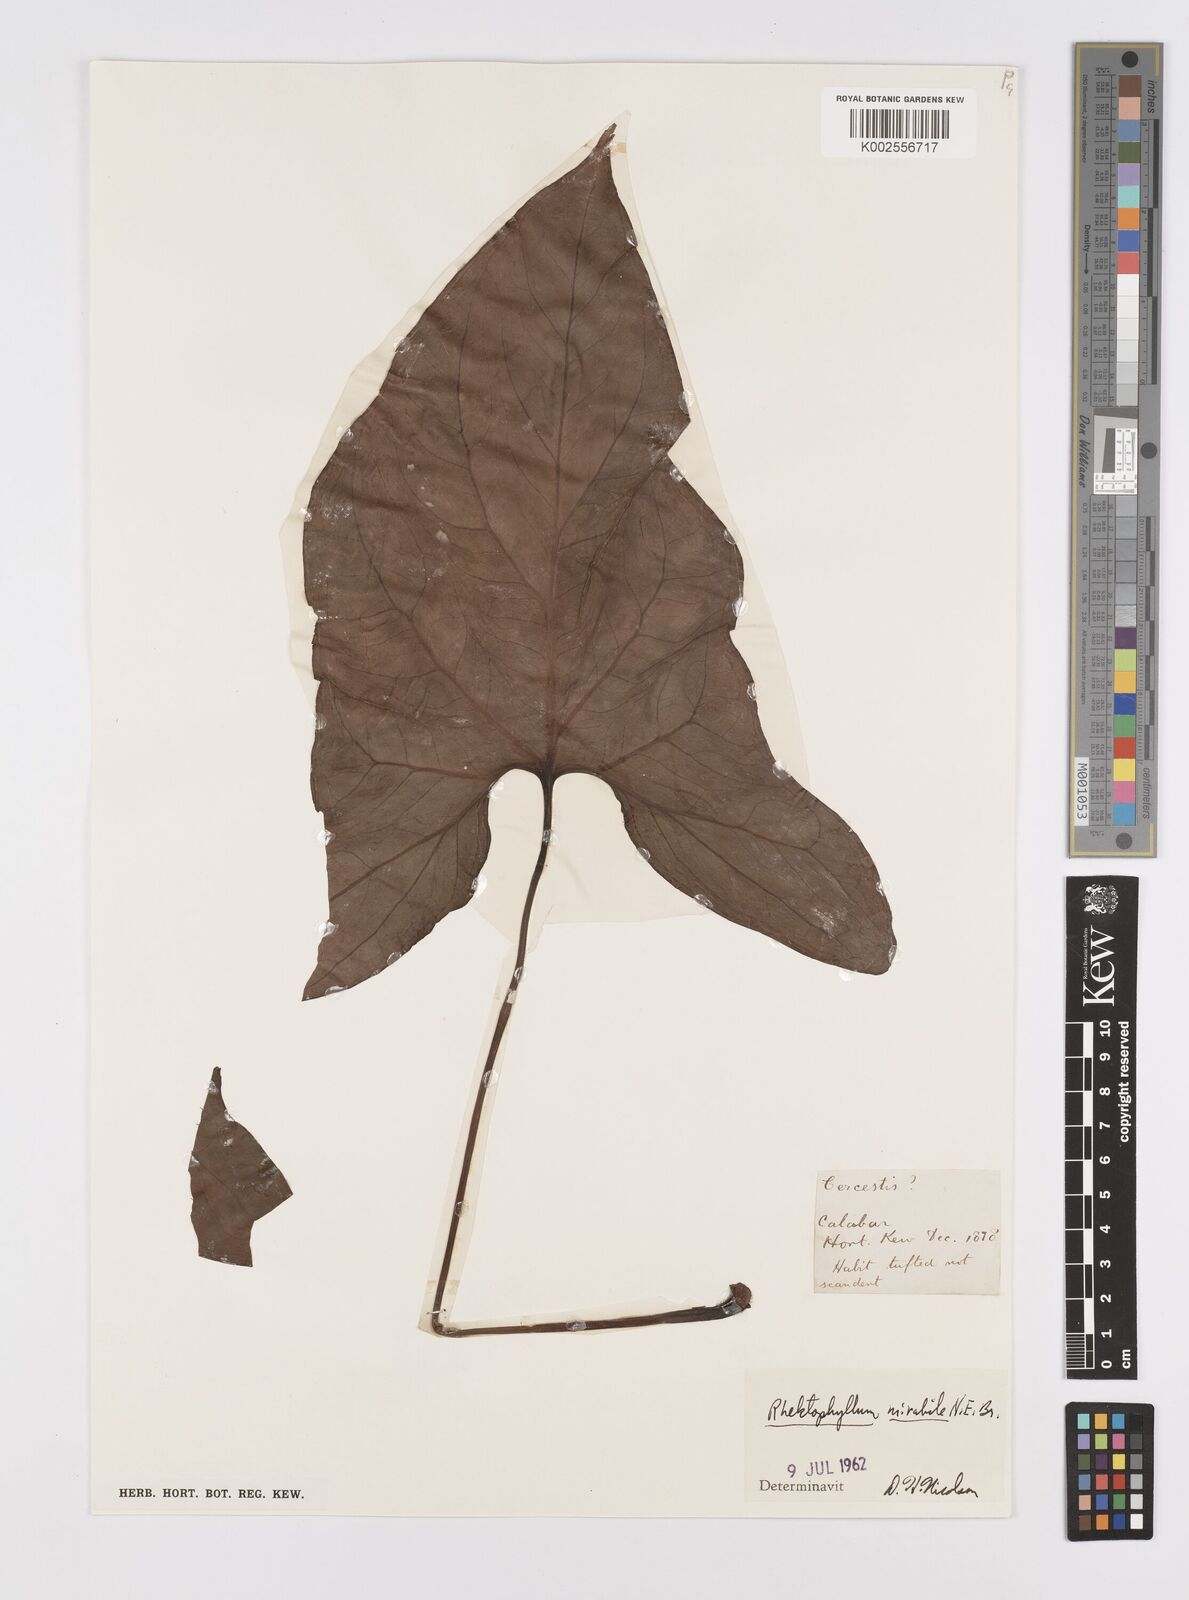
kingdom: Plantae
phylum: Tracheophyta
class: Liliopsida
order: Alismatales
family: Araceae
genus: Cercestis
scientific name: Cercestis mirabilis
